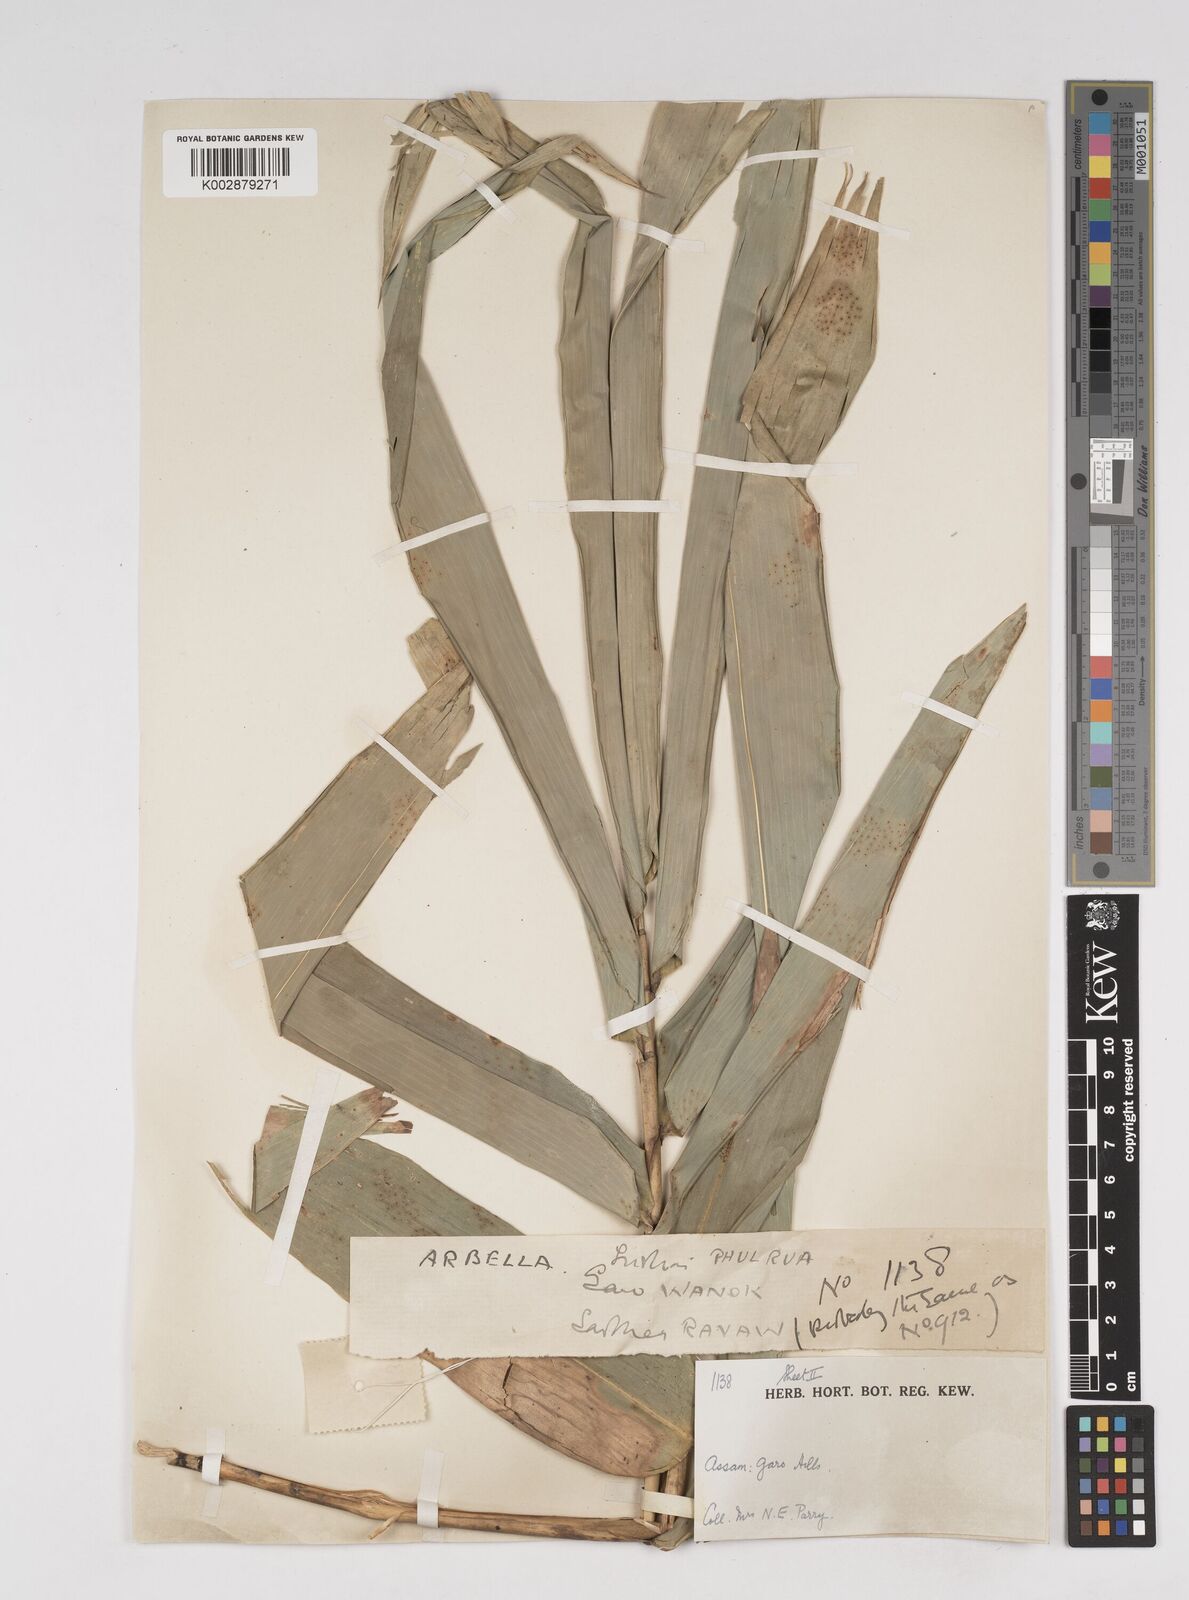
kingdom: Plantae
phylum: Tracheophyta
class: Liliopsida
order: Poales
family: Poaceae
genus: Dendrocalamus
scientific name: Dendrocalamus
